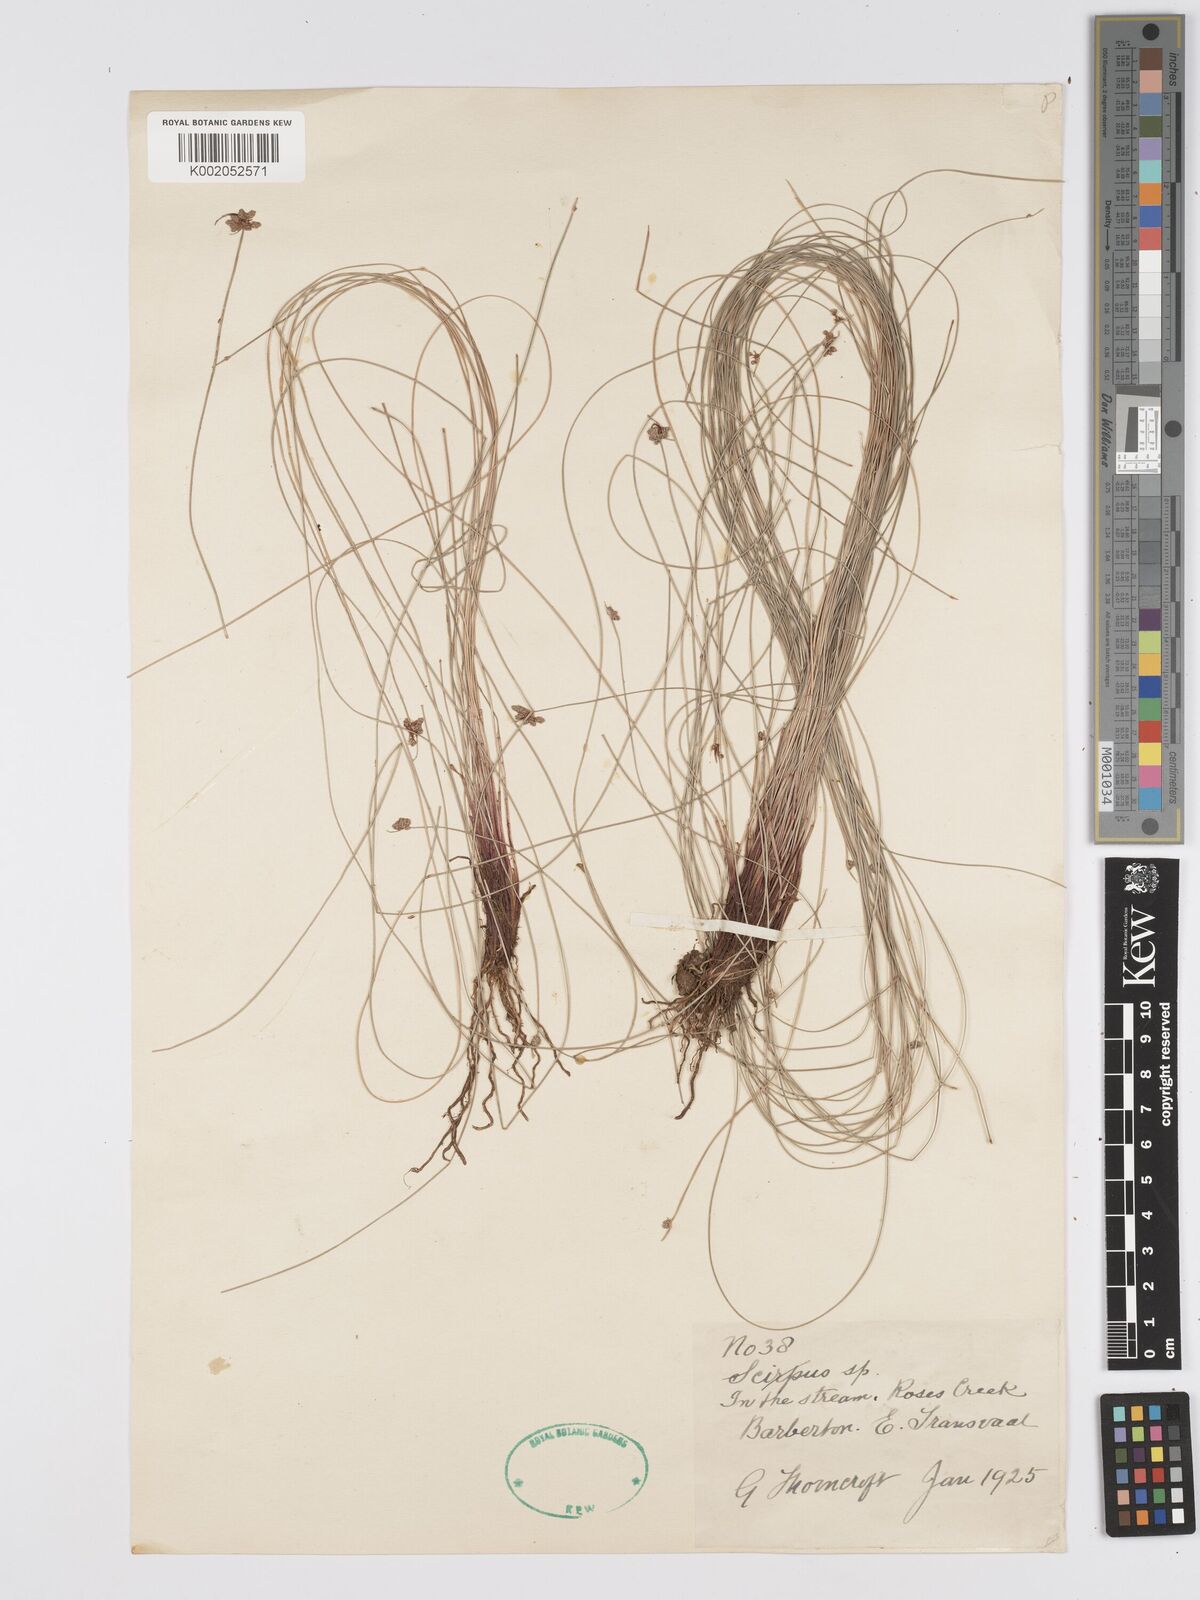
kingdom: Plantae
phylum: Tracheophyta
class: Liliopsida
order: Poales
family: Cyperaceae
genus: Scirpus
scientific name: Scirpus
